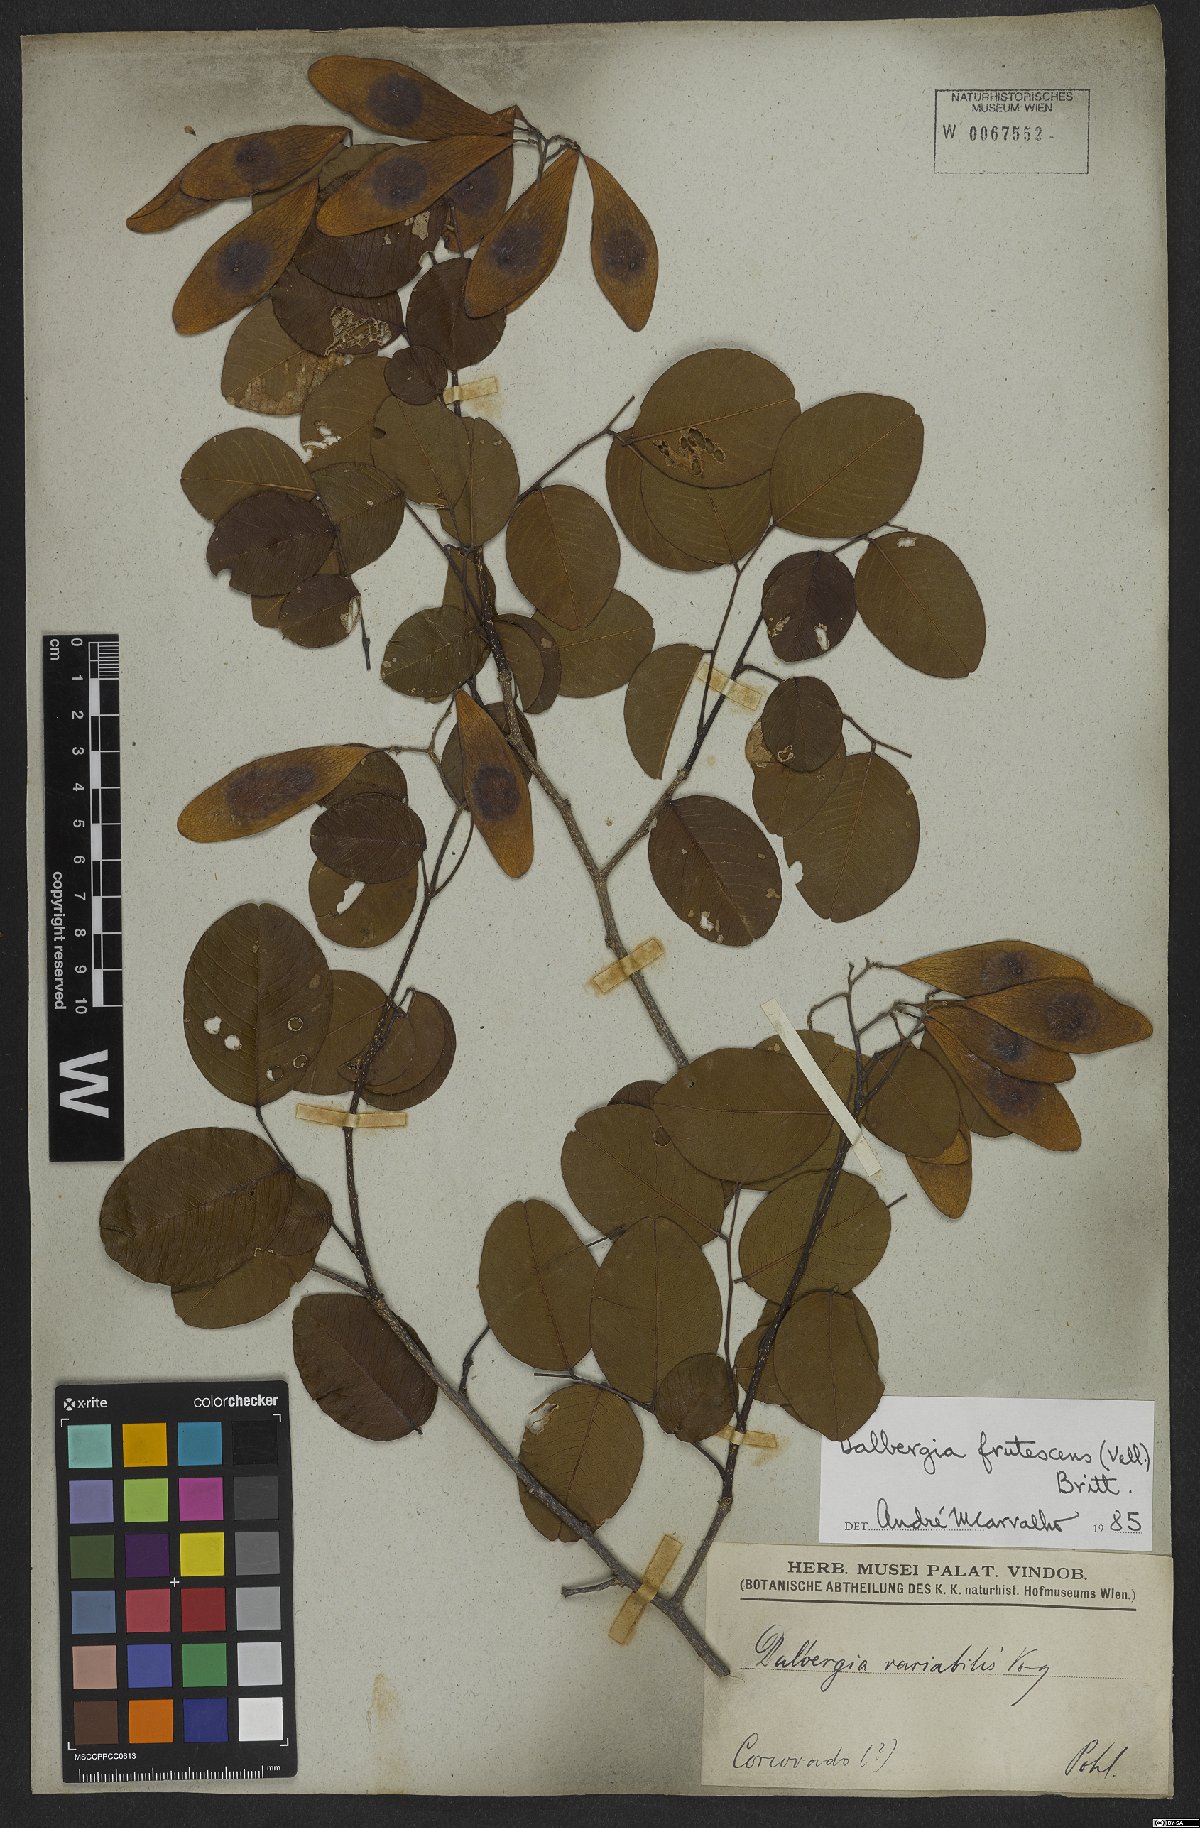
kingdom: Plantae
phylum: Tracheophyta
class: Magnoliopsida
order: Fabales
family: Fabaceae
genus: Dalbergia
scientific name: Dalbergia frutescens
